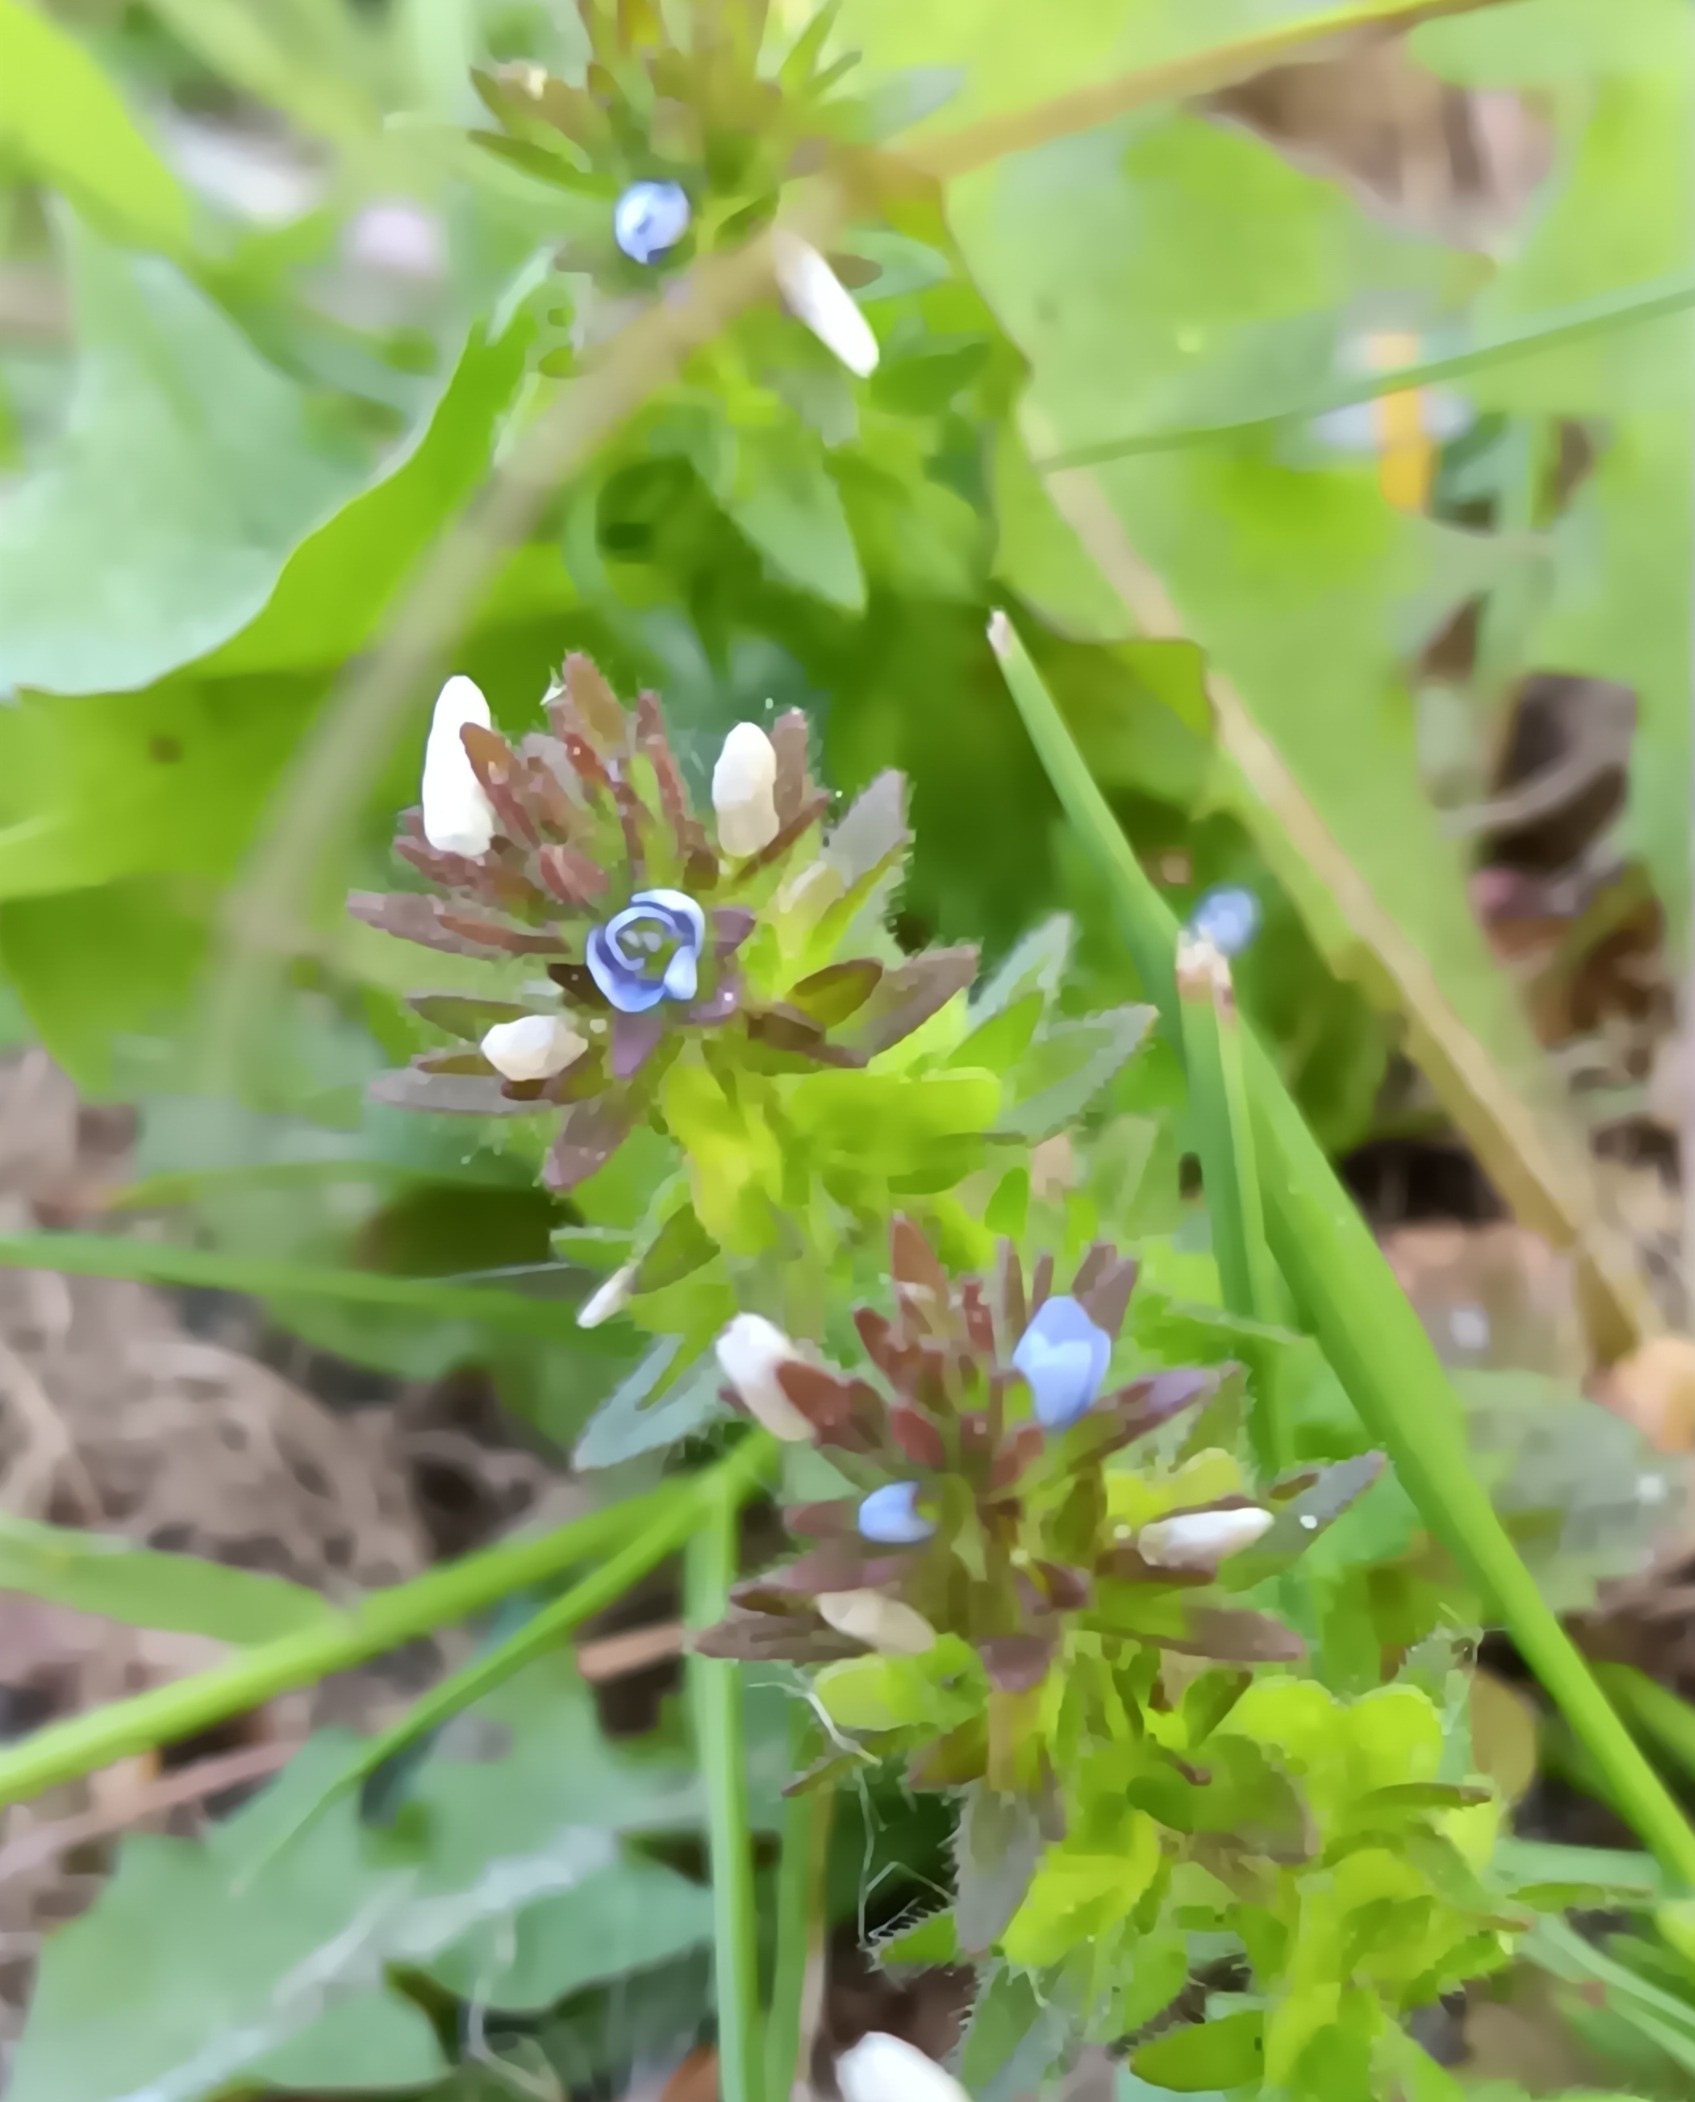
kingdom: Plantae
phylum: Tracheophyta
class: Magnoliopsida
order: Lamiales
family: Plantaginaceae
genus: Veronica
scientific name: Veronica arvensis
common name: Mark-ærenpris
